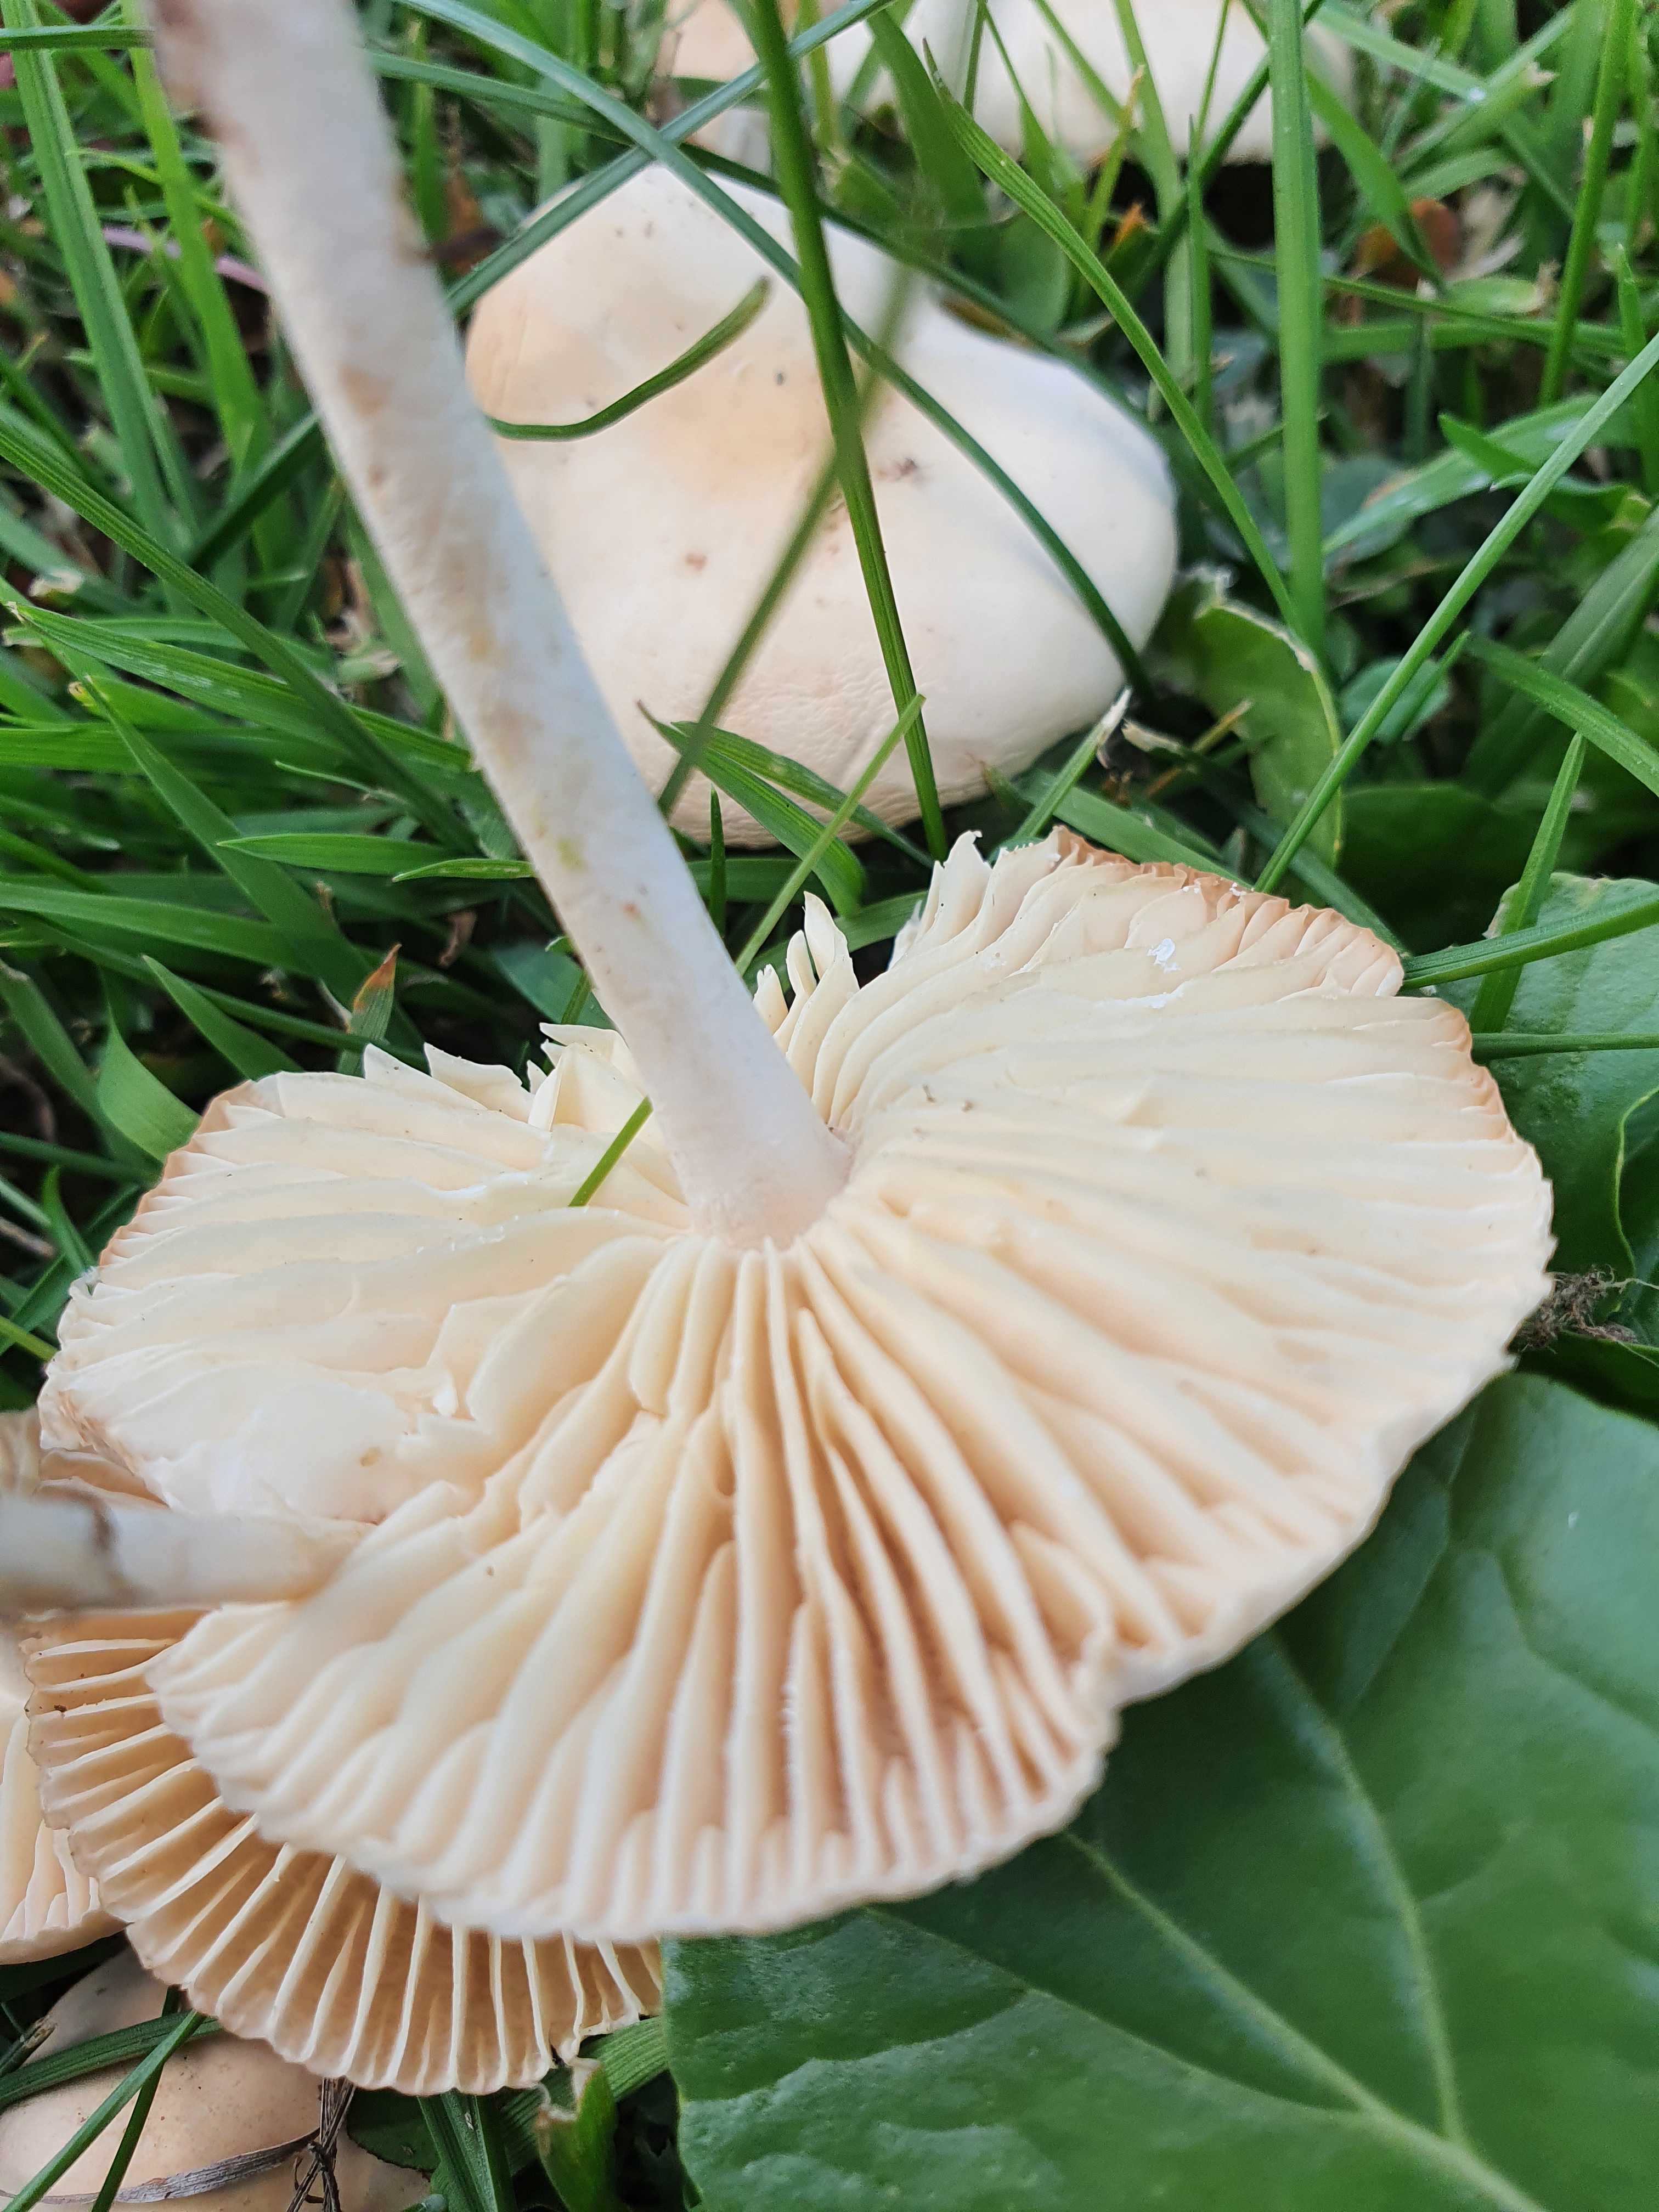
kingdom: Fungi
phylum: Basidiomycota
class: Agaricomycetes
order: Agaricales
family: Marasmiaceae
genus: Marasmius
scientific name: Marasmius oreades
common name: elledans-bruskhat
